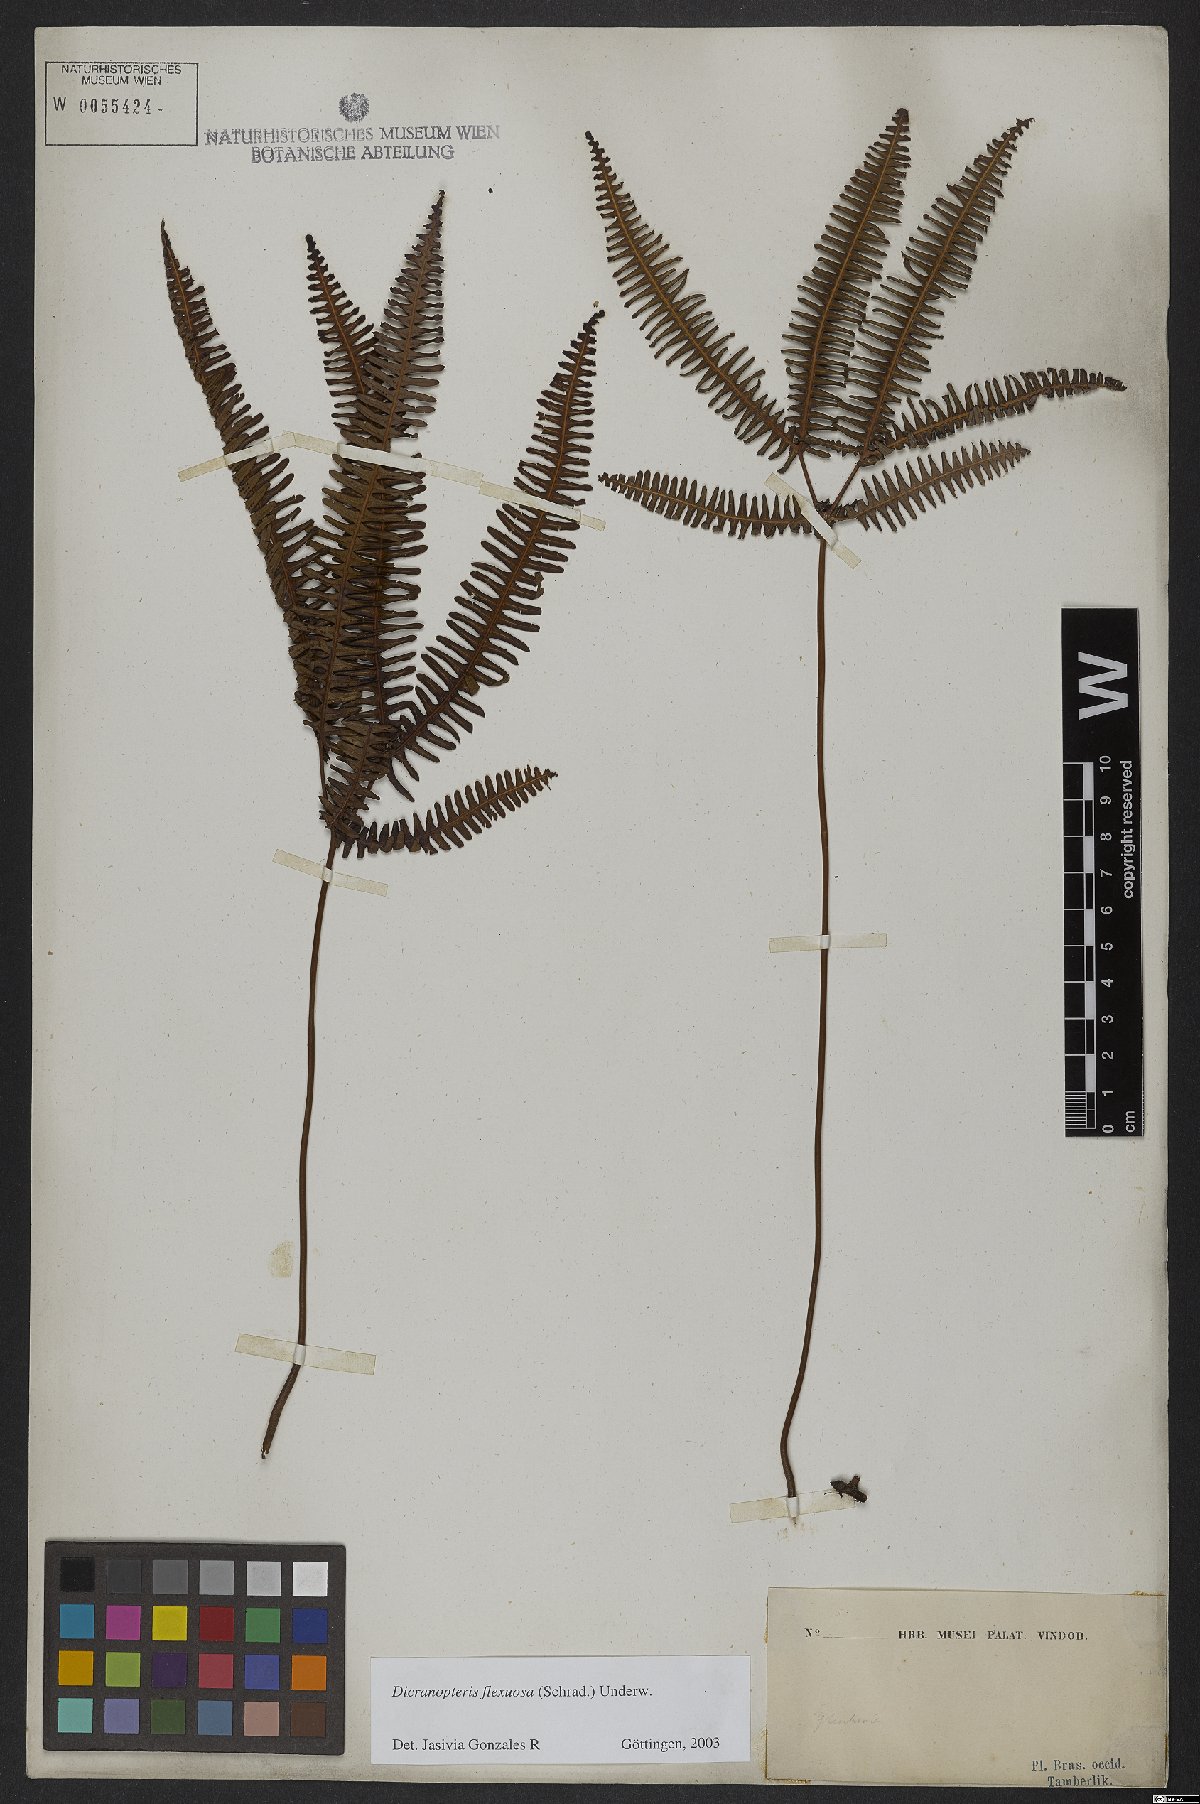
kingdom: Plantae
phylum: Tracheophyta
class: Polypodiopsida
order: Gleicheniales
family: Gleicheniaceae
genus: Dicranopteris
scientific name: Dicranopteris flexuosa
